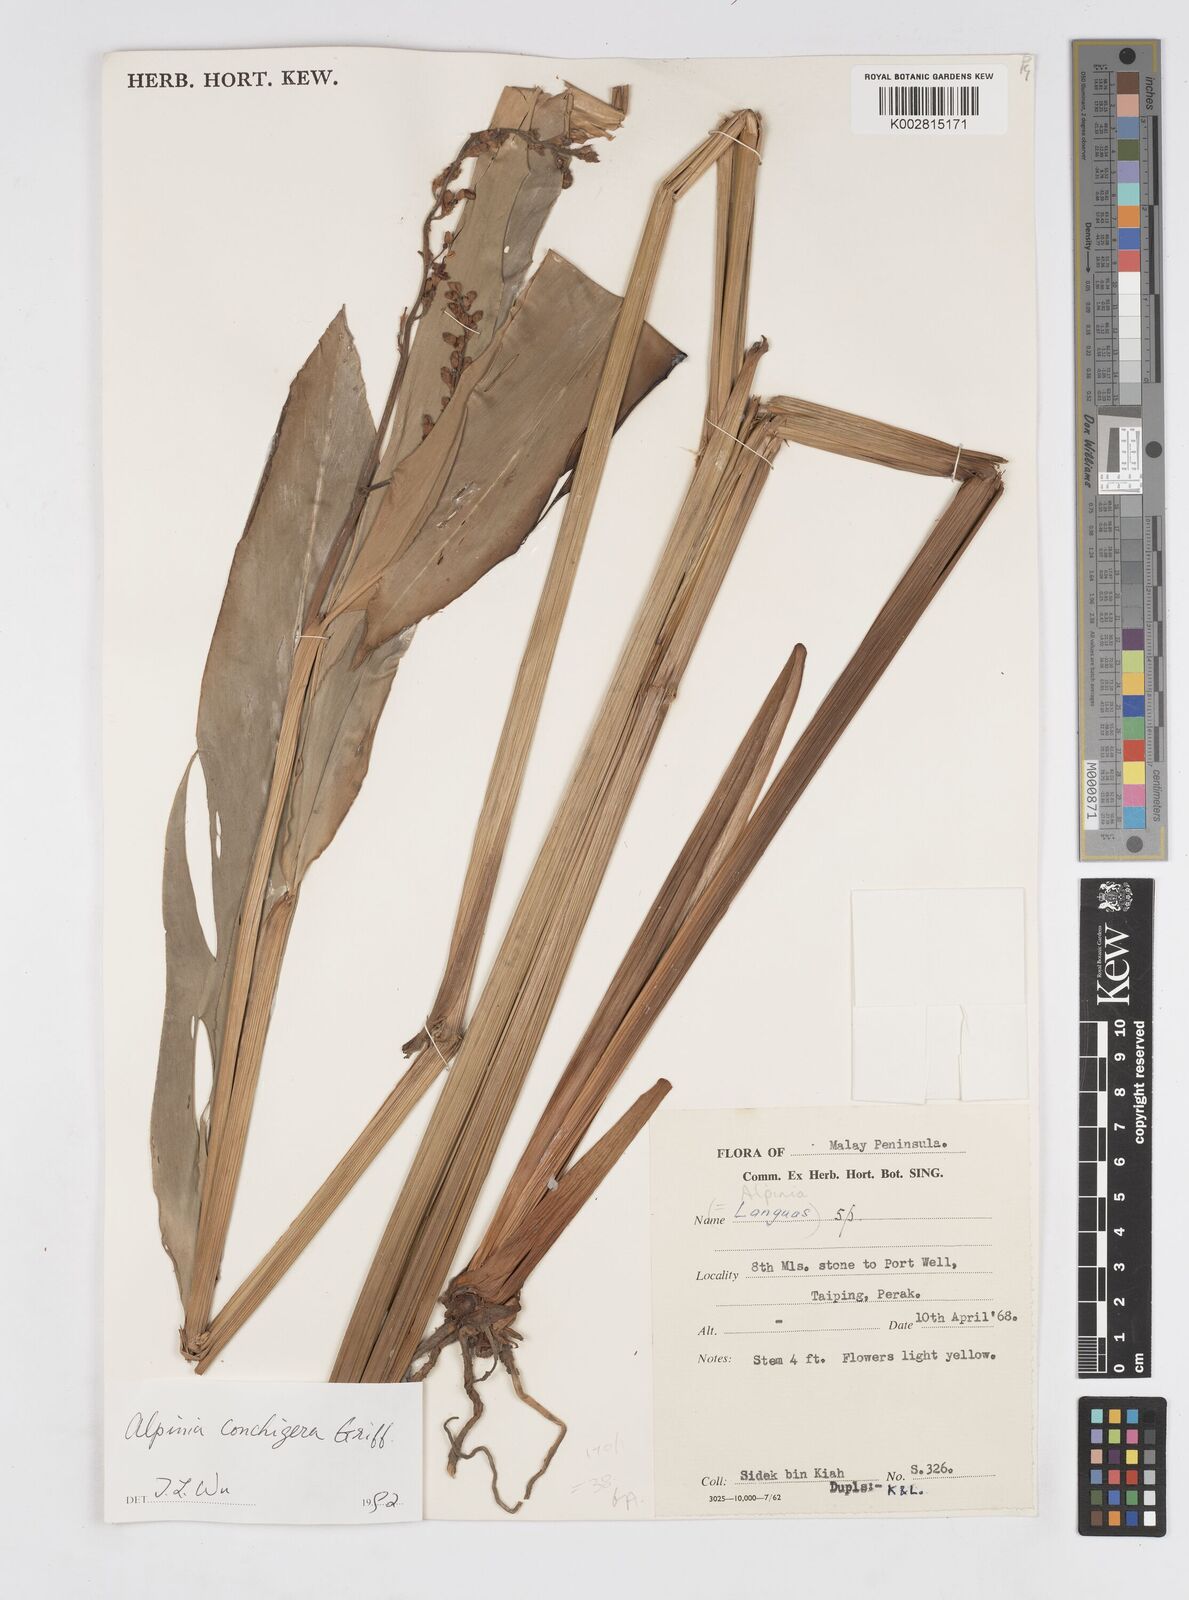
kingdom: Plantae
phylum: Tracheophyta
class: Liliopsida
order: Zingiberales
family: Zingiberaceae
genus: Alpinia
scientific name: Alpinia conchigera
